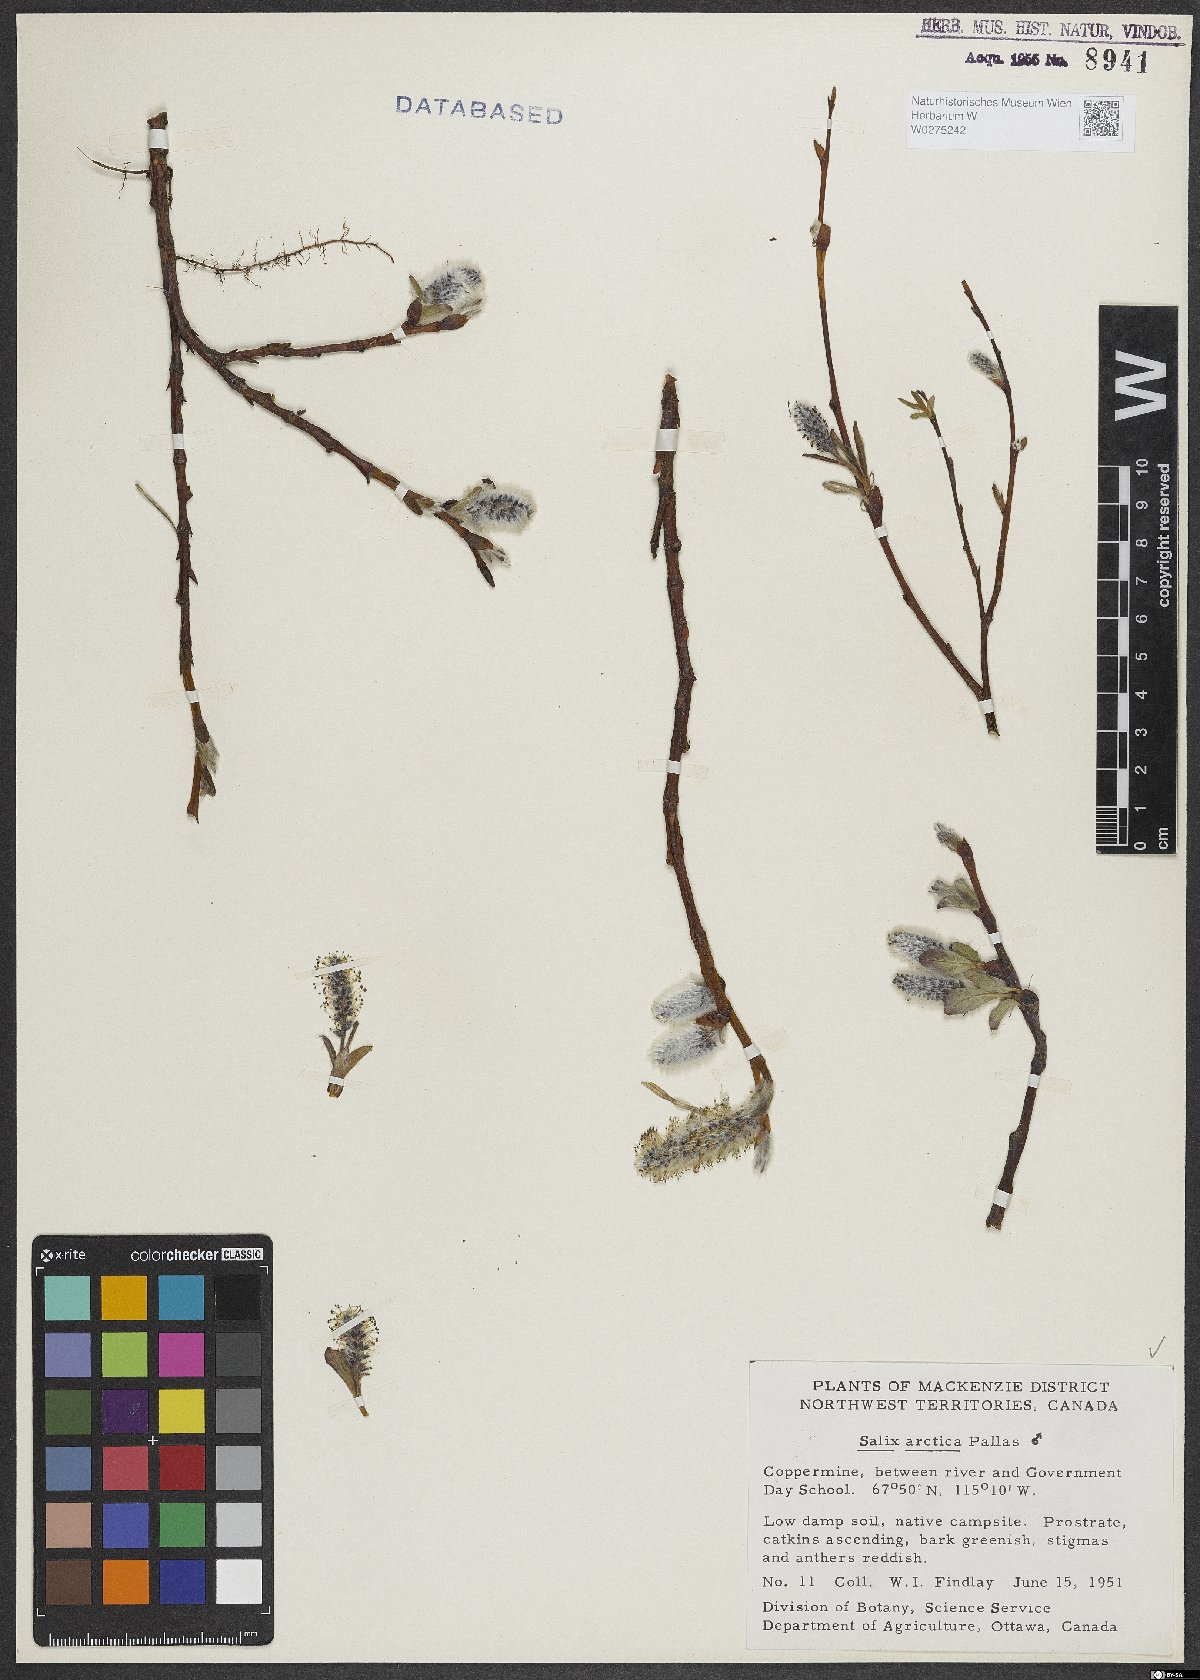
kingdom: Plantae
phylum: Tracheophyta
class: Magnoliopsida
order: Malpighiales
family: Salicaceae
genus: Salix
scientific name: Salix arctica
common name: Arctic willow
